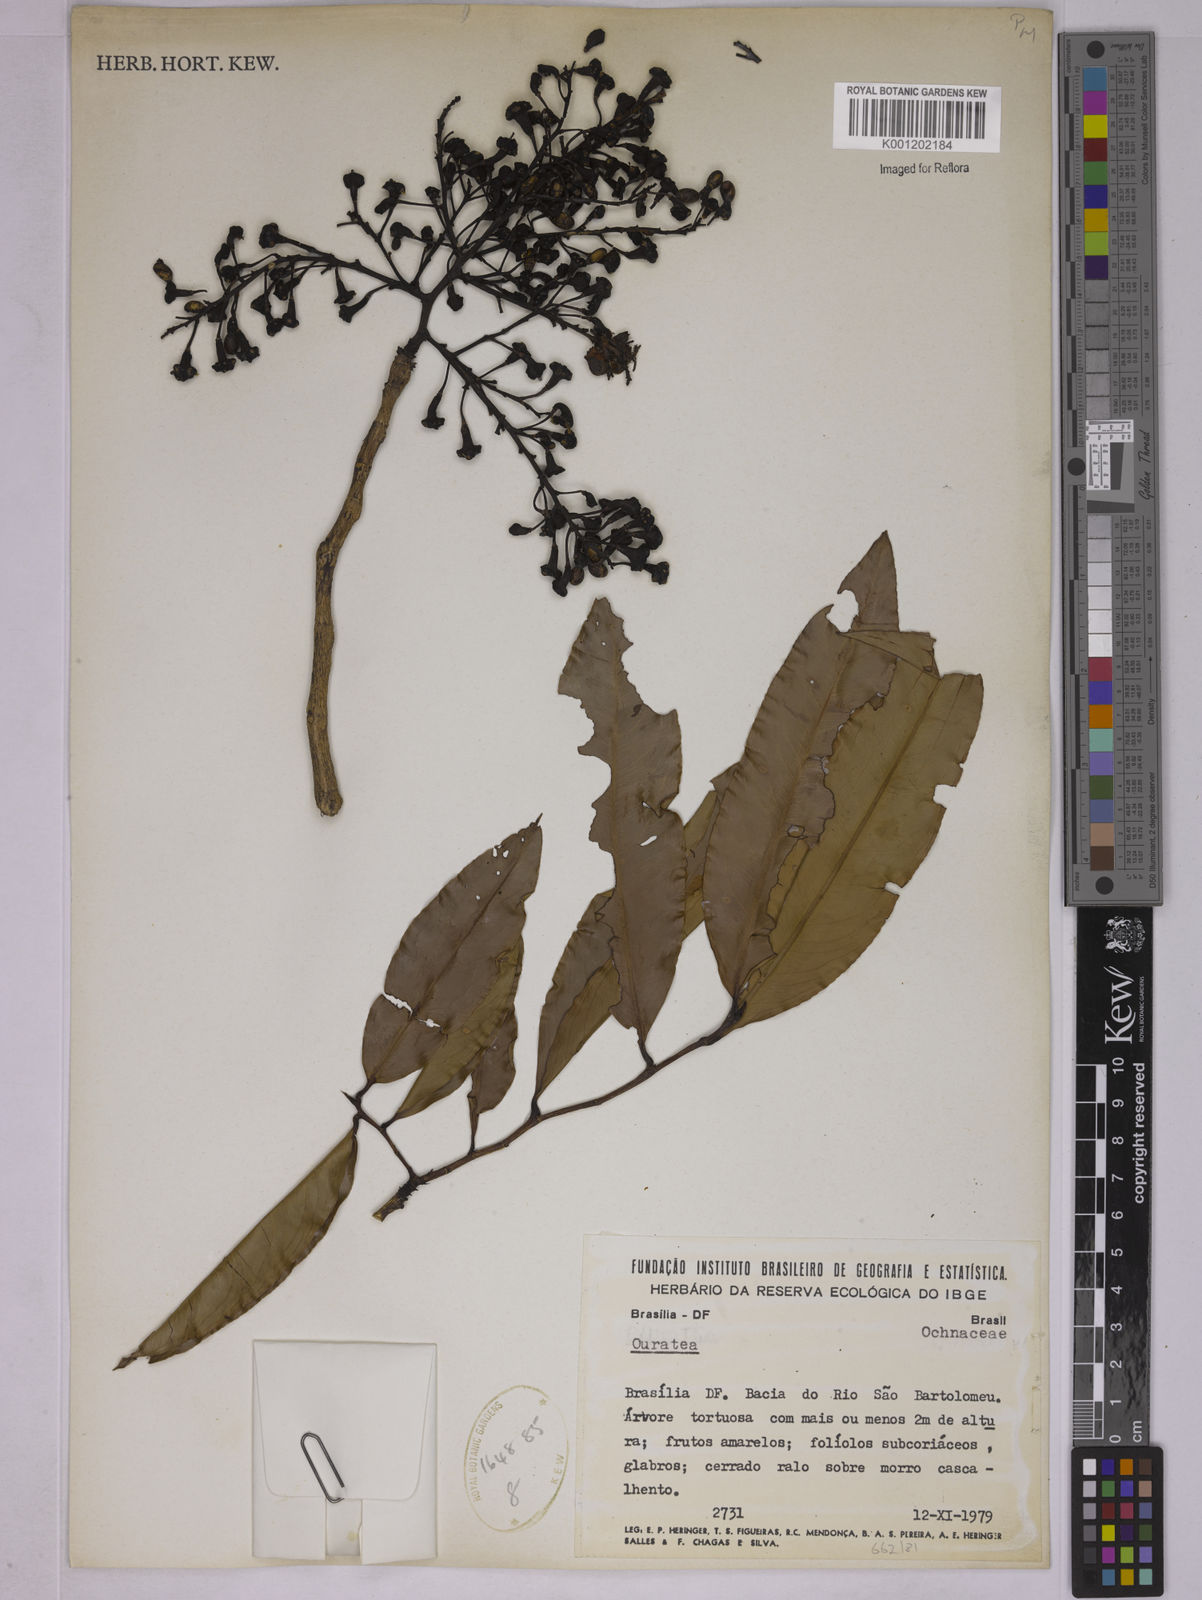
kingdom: Plantae
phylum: Tracheophyta
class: Magnoliopsida
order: Malpighiales
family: Ochnaceae
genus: Ouratea
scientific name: Ouratea
